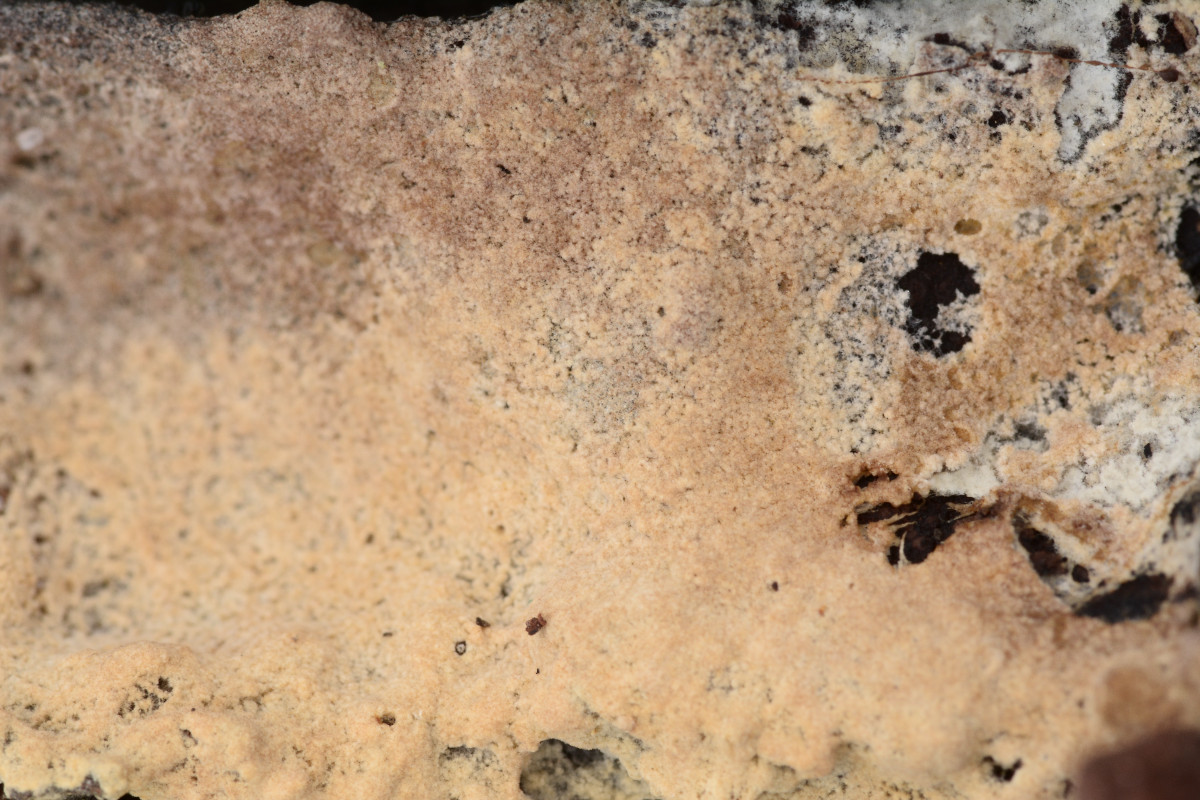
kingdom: Fungi
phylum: Basidiomycota
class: Agaricomycetes
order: Boletales
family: Coniophoraceae
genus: Coniophora
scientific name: Coniophora arida
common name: tynd tømmersvamp
